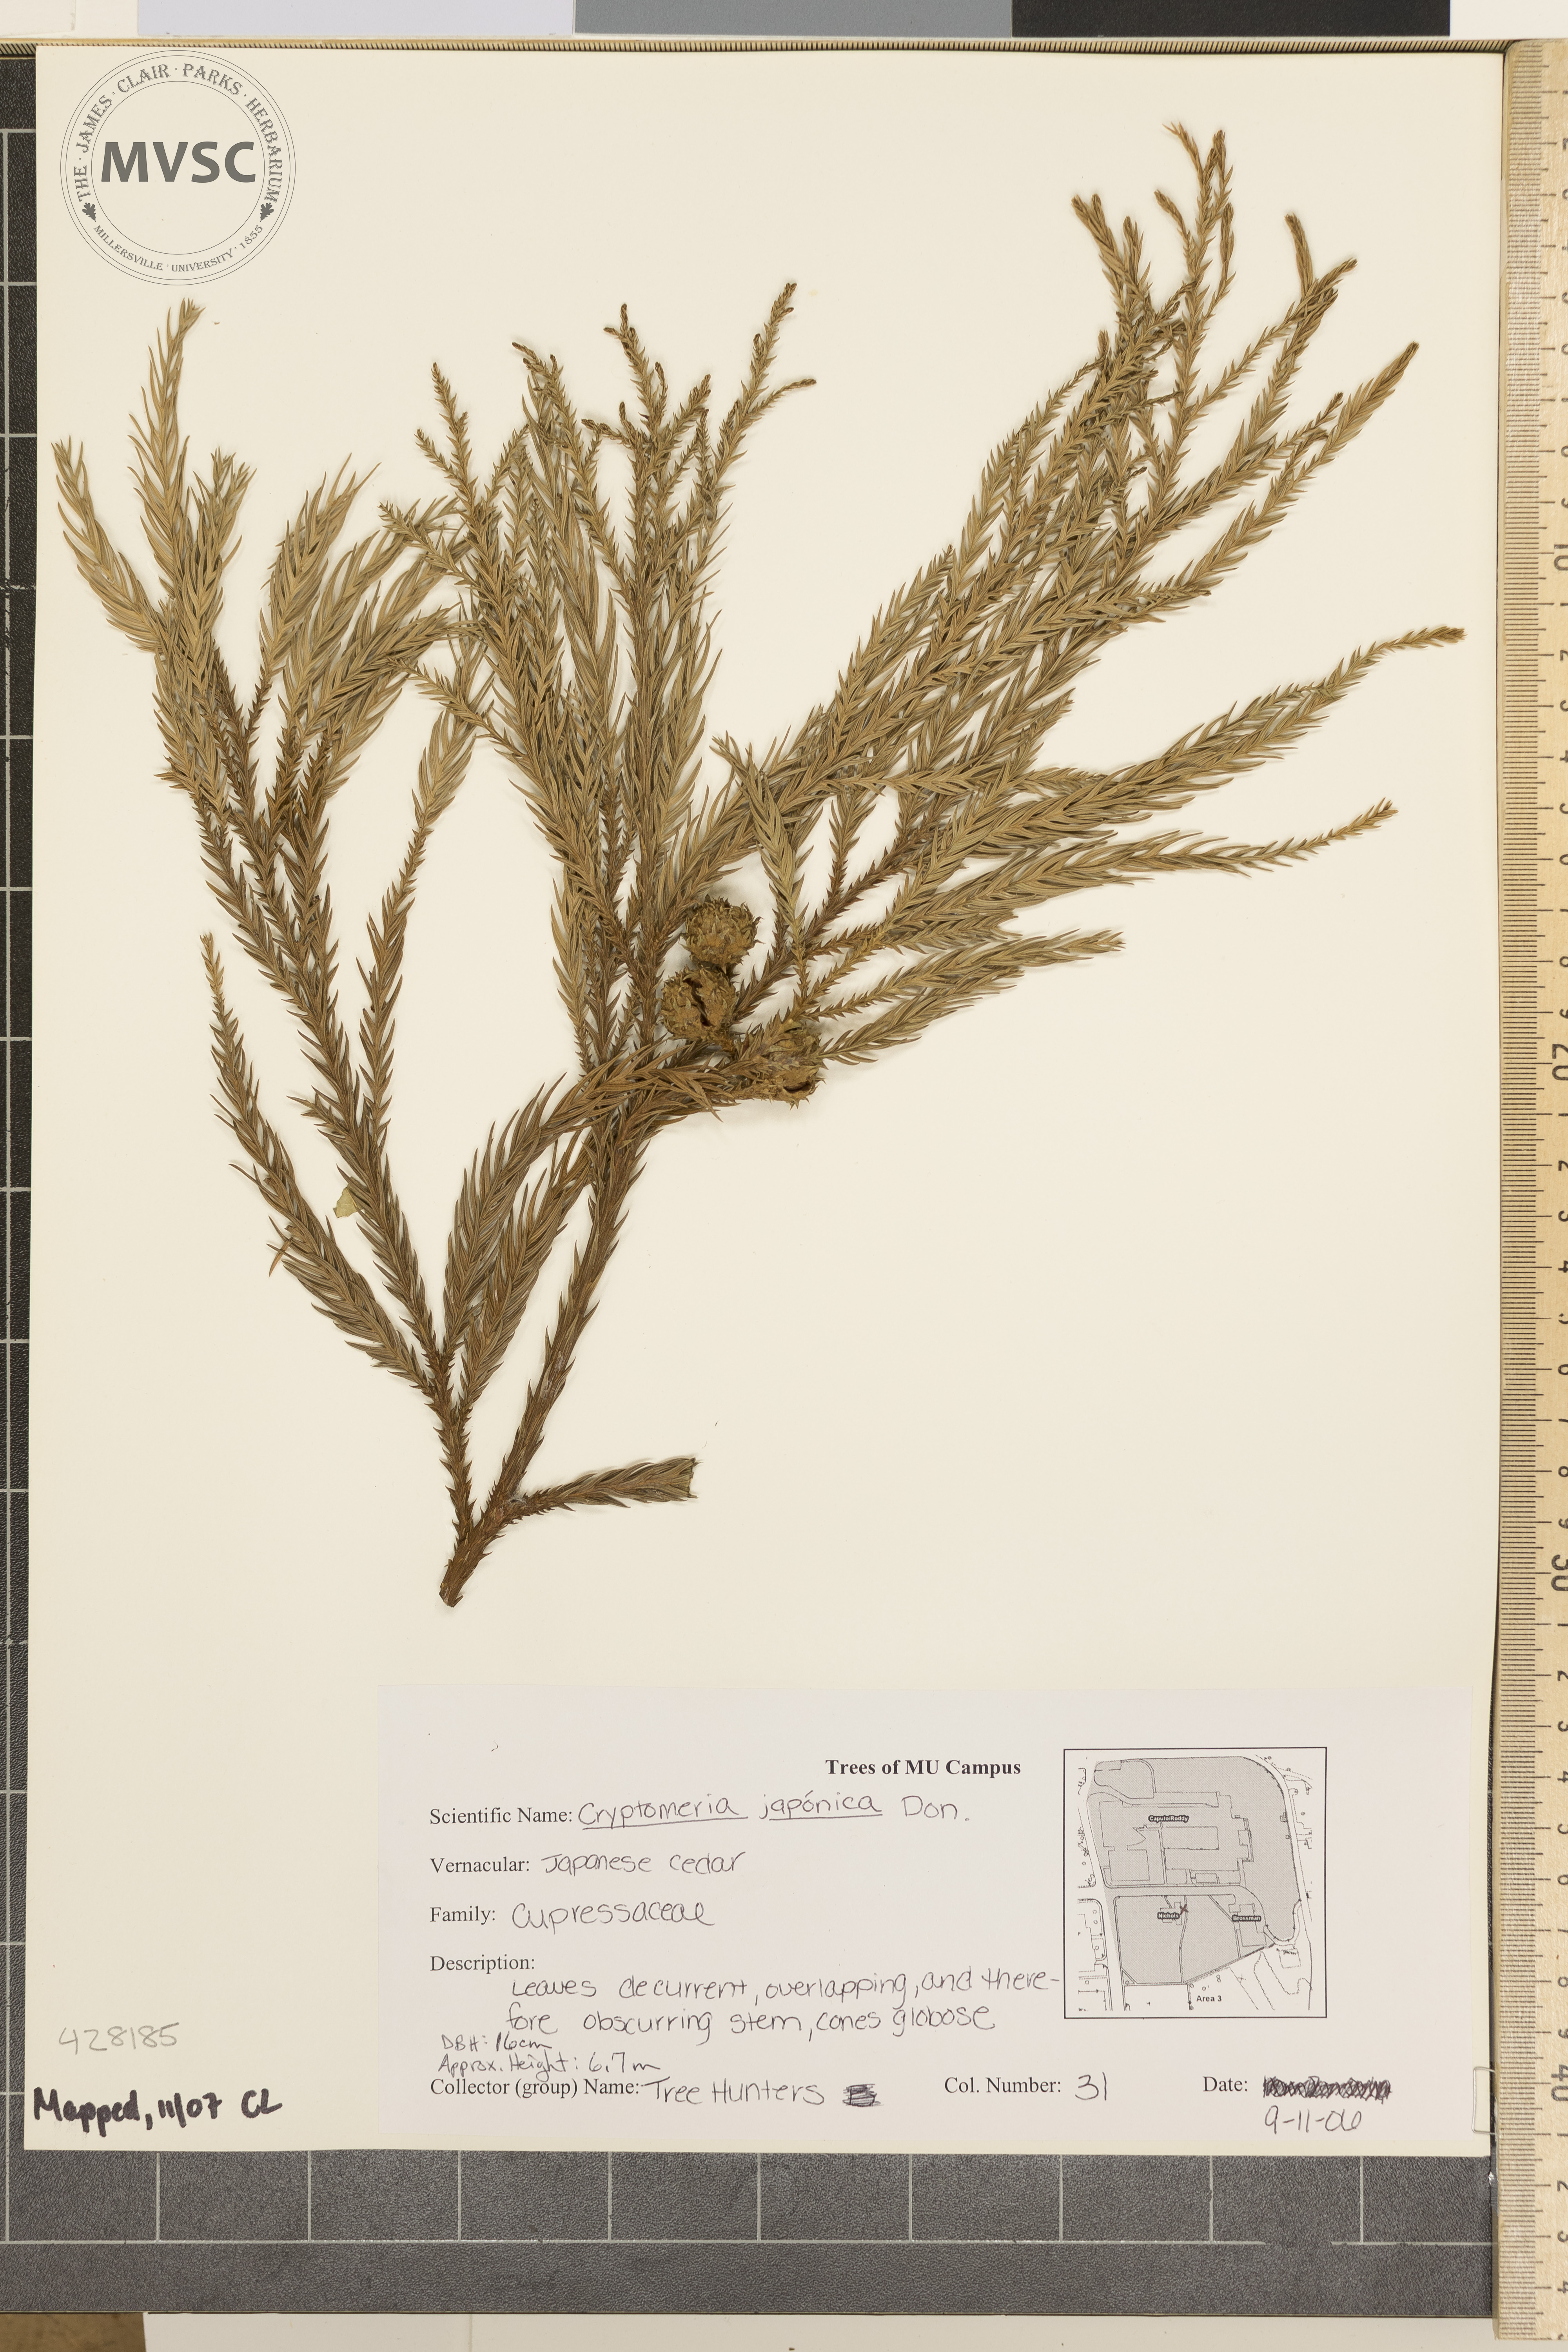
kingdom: Plantae
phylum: Tracheophyta
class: Pinopsida
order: Pinales
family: Cupressaceae
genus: Cryptomeria
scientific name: Cryptomeria japonica
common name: Japanese Cedar
